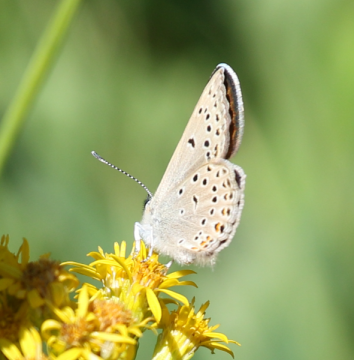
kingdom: Animalia
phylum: Arthropoda
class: Insecta
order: Lepidoptera
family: Lycaenidae
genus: Nacaduba
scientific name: Nacaduba dyopa
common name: Gray Copper
